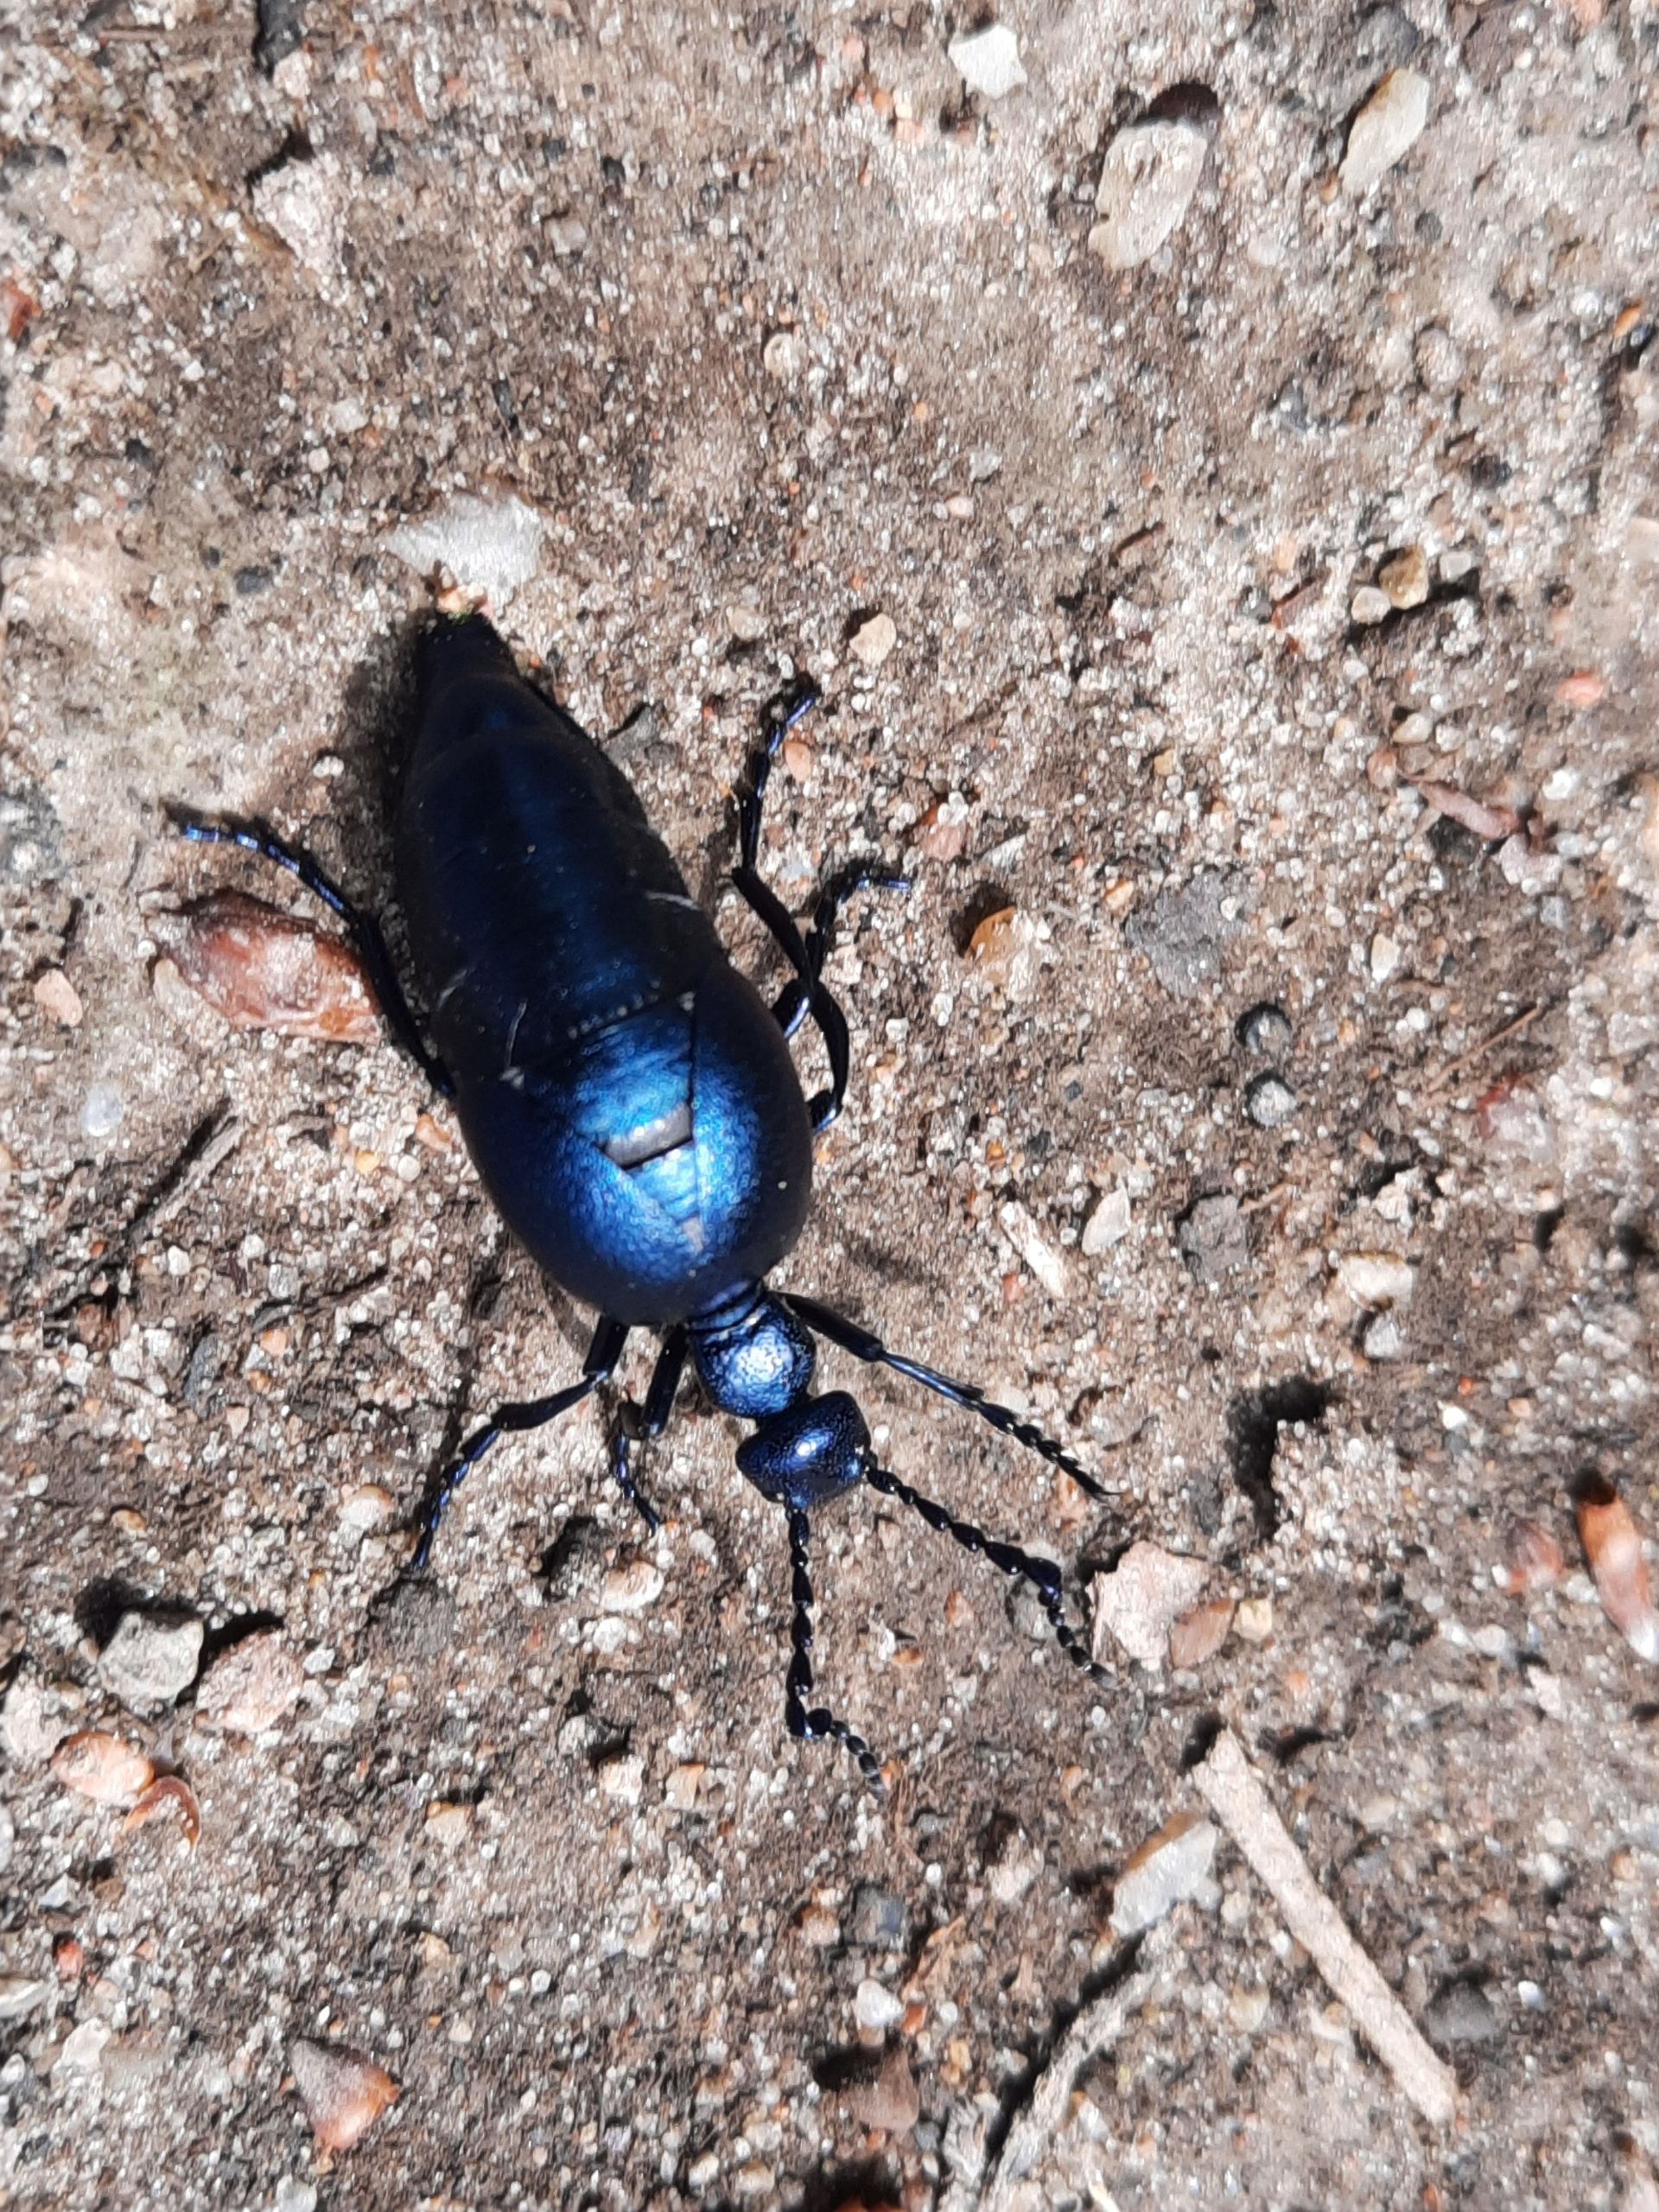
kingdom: Animalia
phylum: Arthropoda
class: Insecta
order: Coleoptera
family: Meloidae
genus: Meloe
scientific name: Meloe violaceus
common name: Blå oliebille
